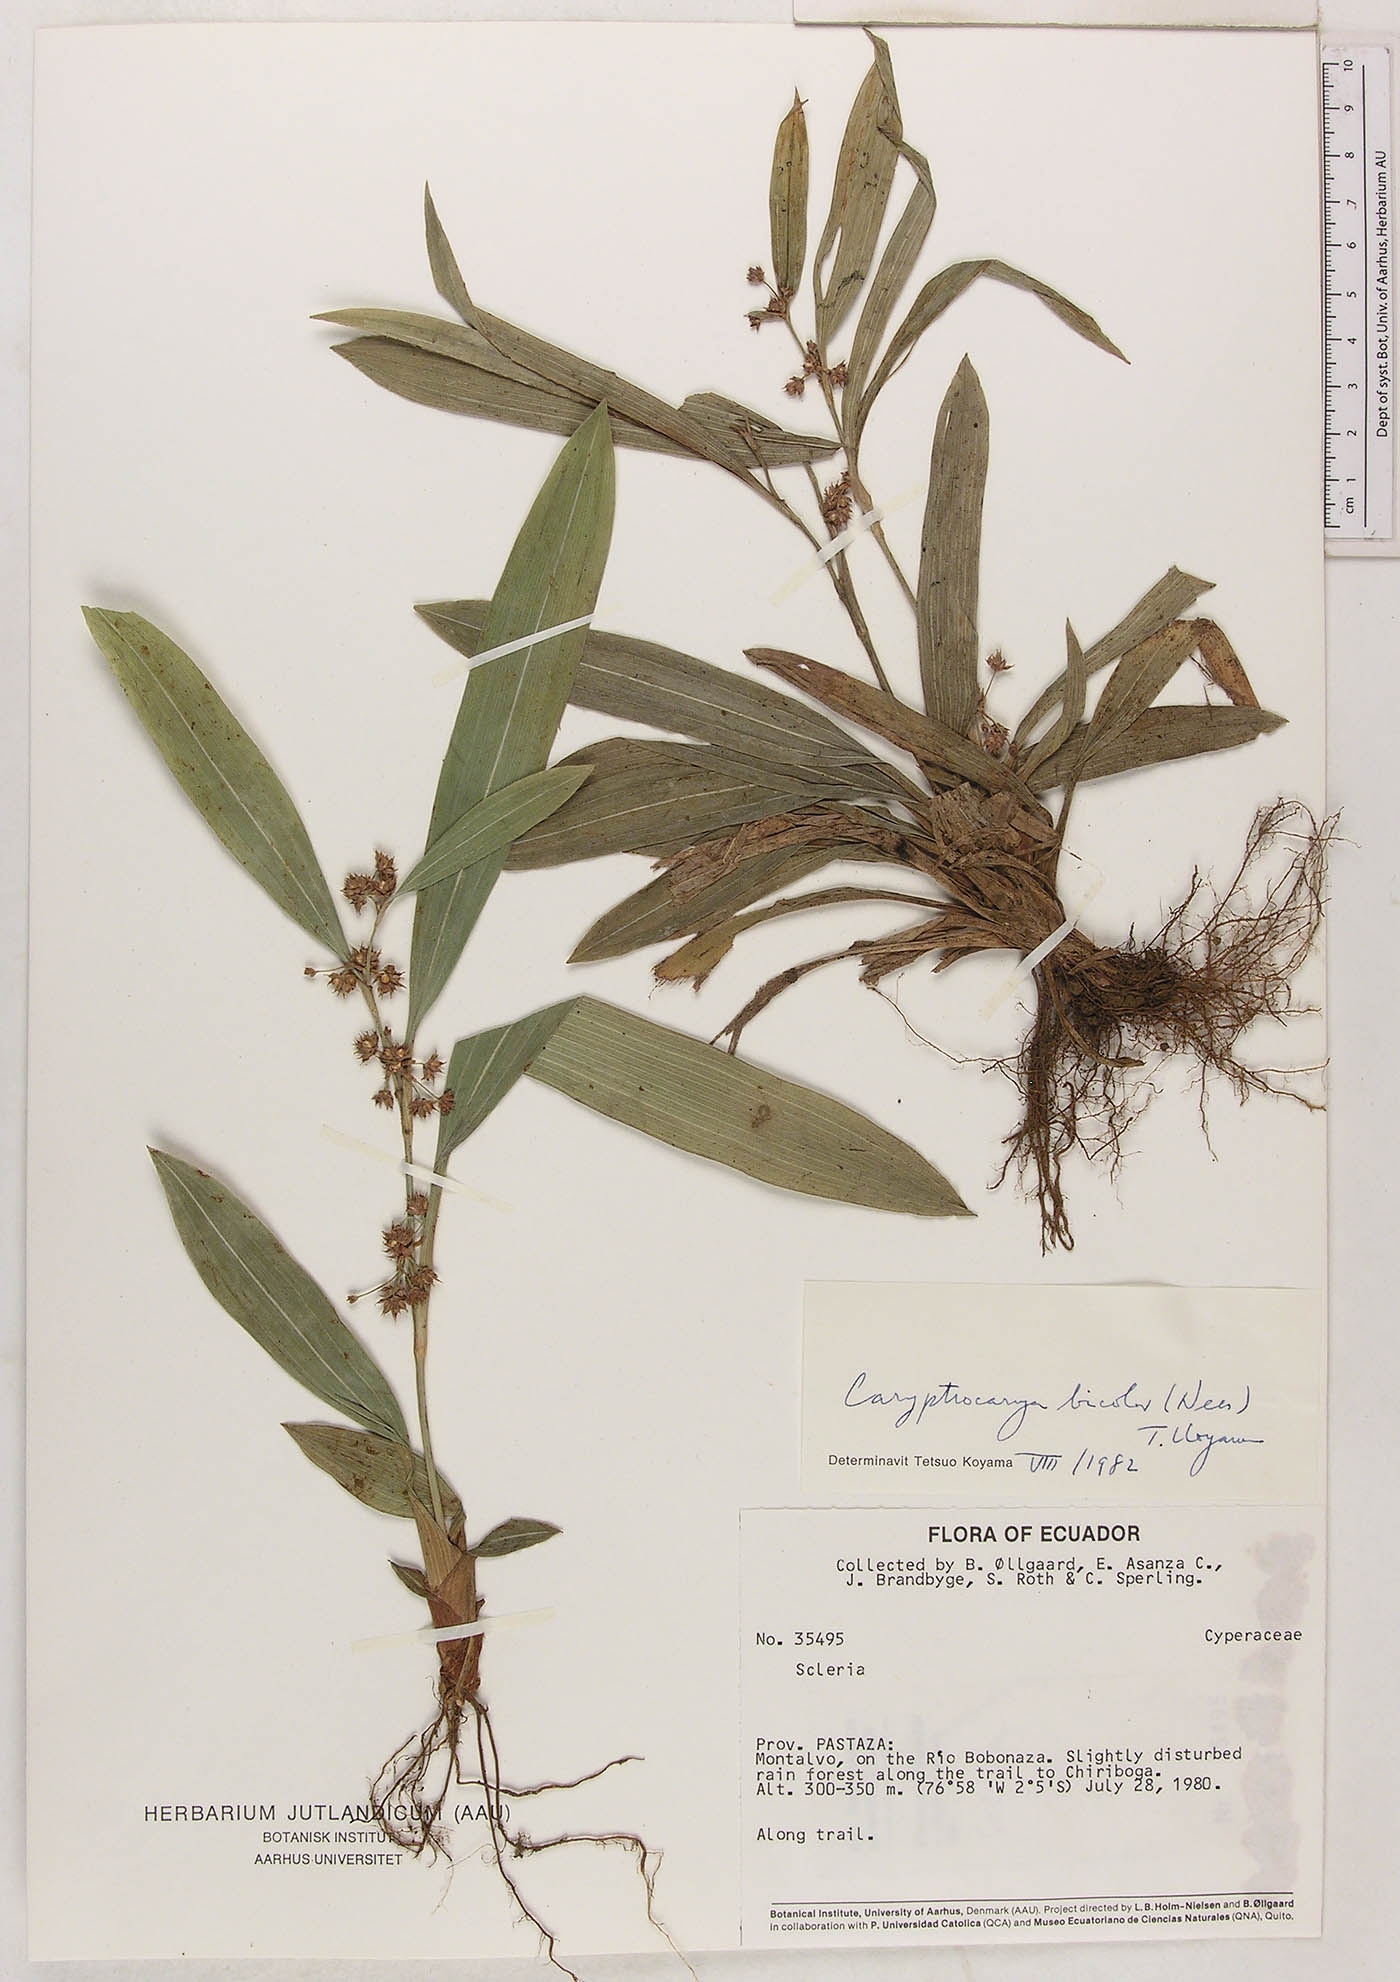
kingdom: Plantae
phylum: Tracheophyta
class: Liliopsida
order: Poales
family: Cyperaceae
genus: Calyptrocarya
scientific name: Calyptrocarya bicolor
